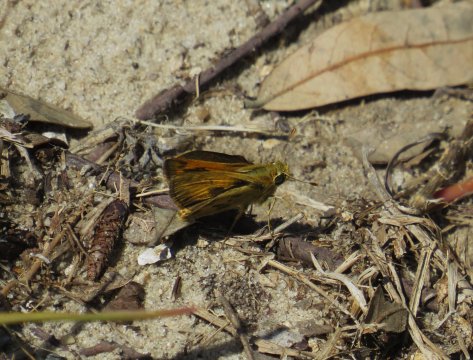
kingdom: Animalia
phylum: Arthropoda
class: Insecta
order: Lepidoptera
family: Hesperiidae
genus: Polites
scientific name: Polites vibex
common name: Whirlabout
